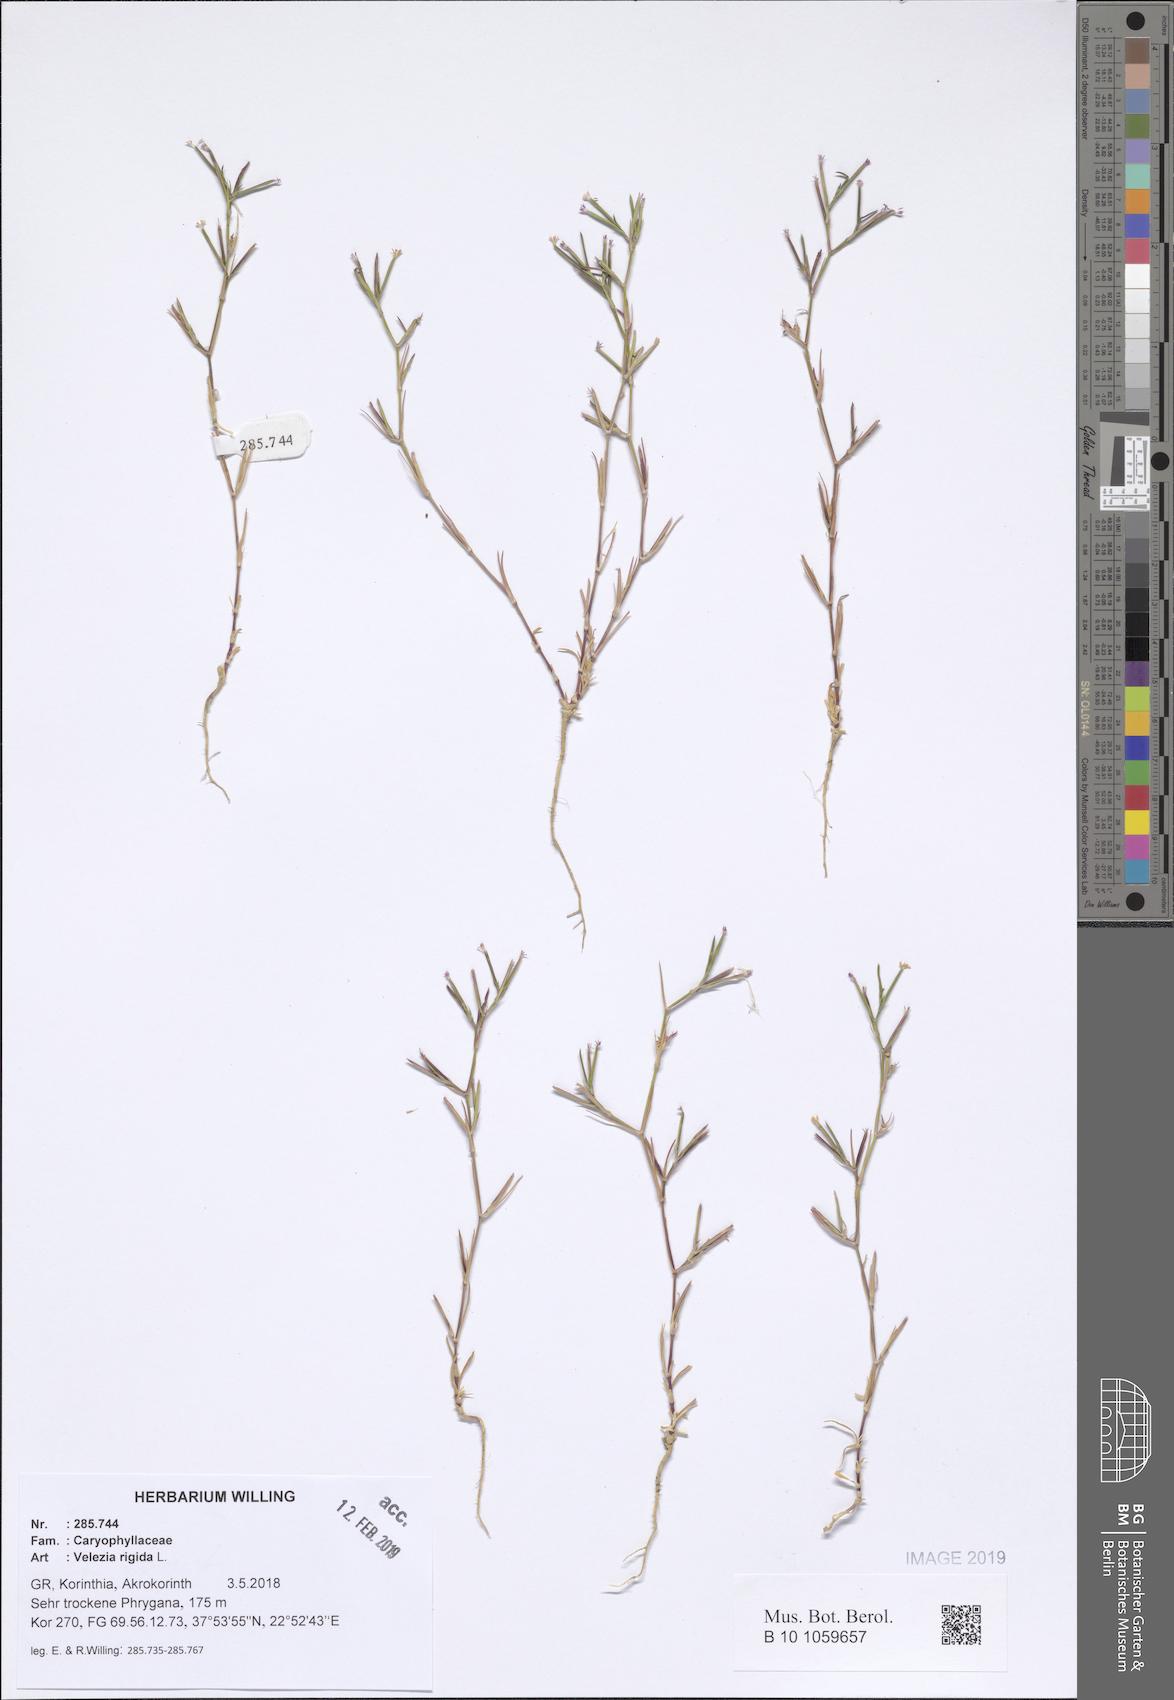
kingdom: Plantae
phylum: Tracheophyta
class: Magnoliopsida
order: Caryophyllales
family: Caryophyllaceae
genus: Dianthus
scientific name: Dianthus nudiflorus
